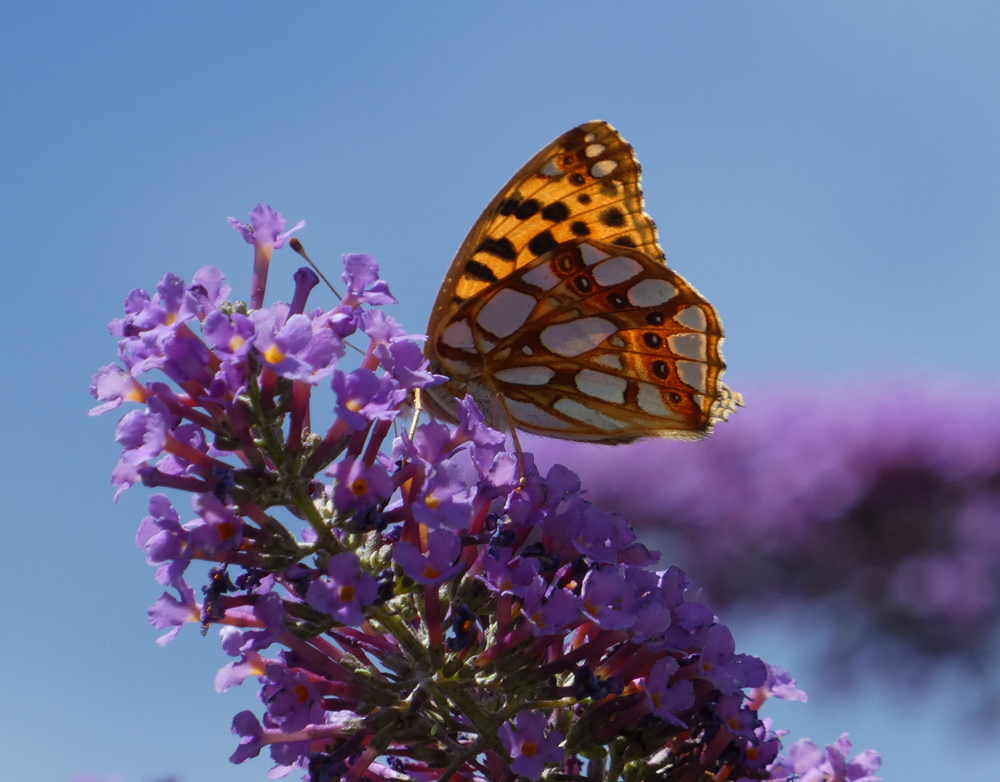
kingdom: Animalia
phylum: Arthropoda
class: Insecta
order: Lepidoptera
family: Nymphalidae
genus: Issoria
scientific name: Issoria lathonia
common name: Queen of spain fritillary
